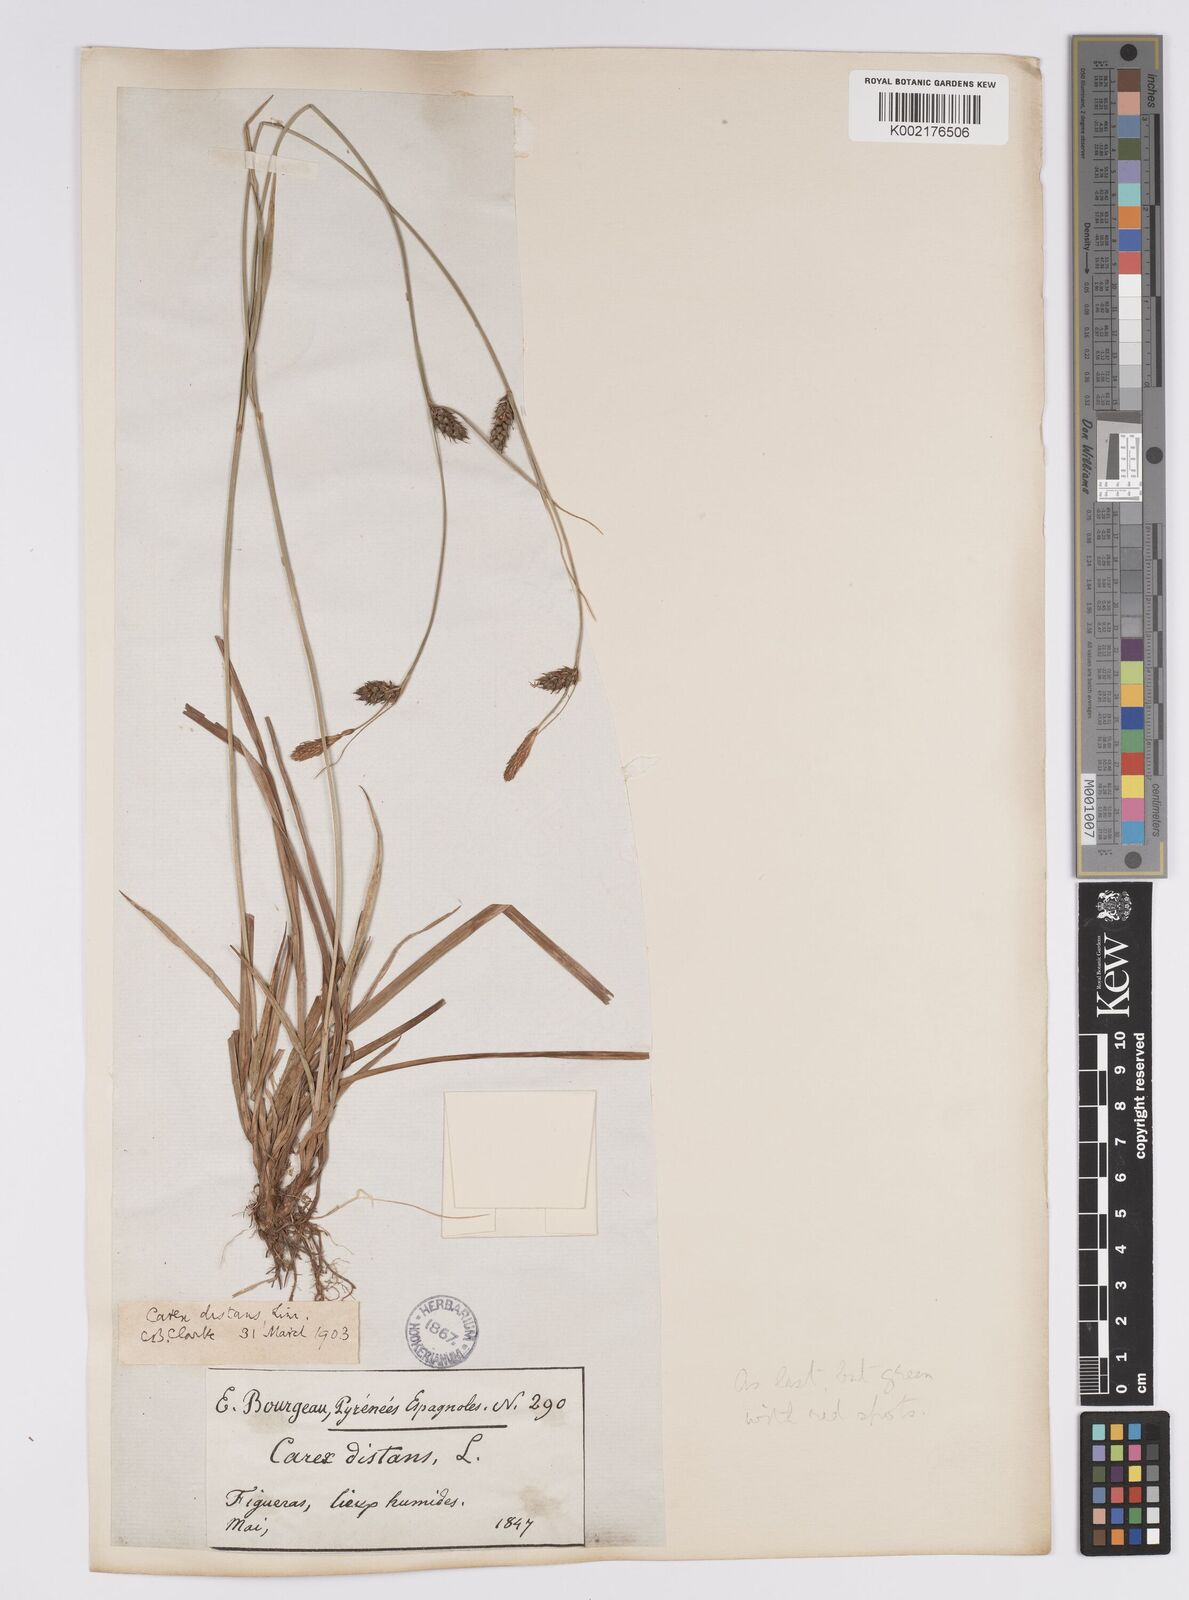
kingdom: Plantae
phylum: Tracheophyta
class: Liliopsida
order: Poales
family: Cyperaceae
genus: Carex
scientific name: Carex distans
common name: Distant sedge
